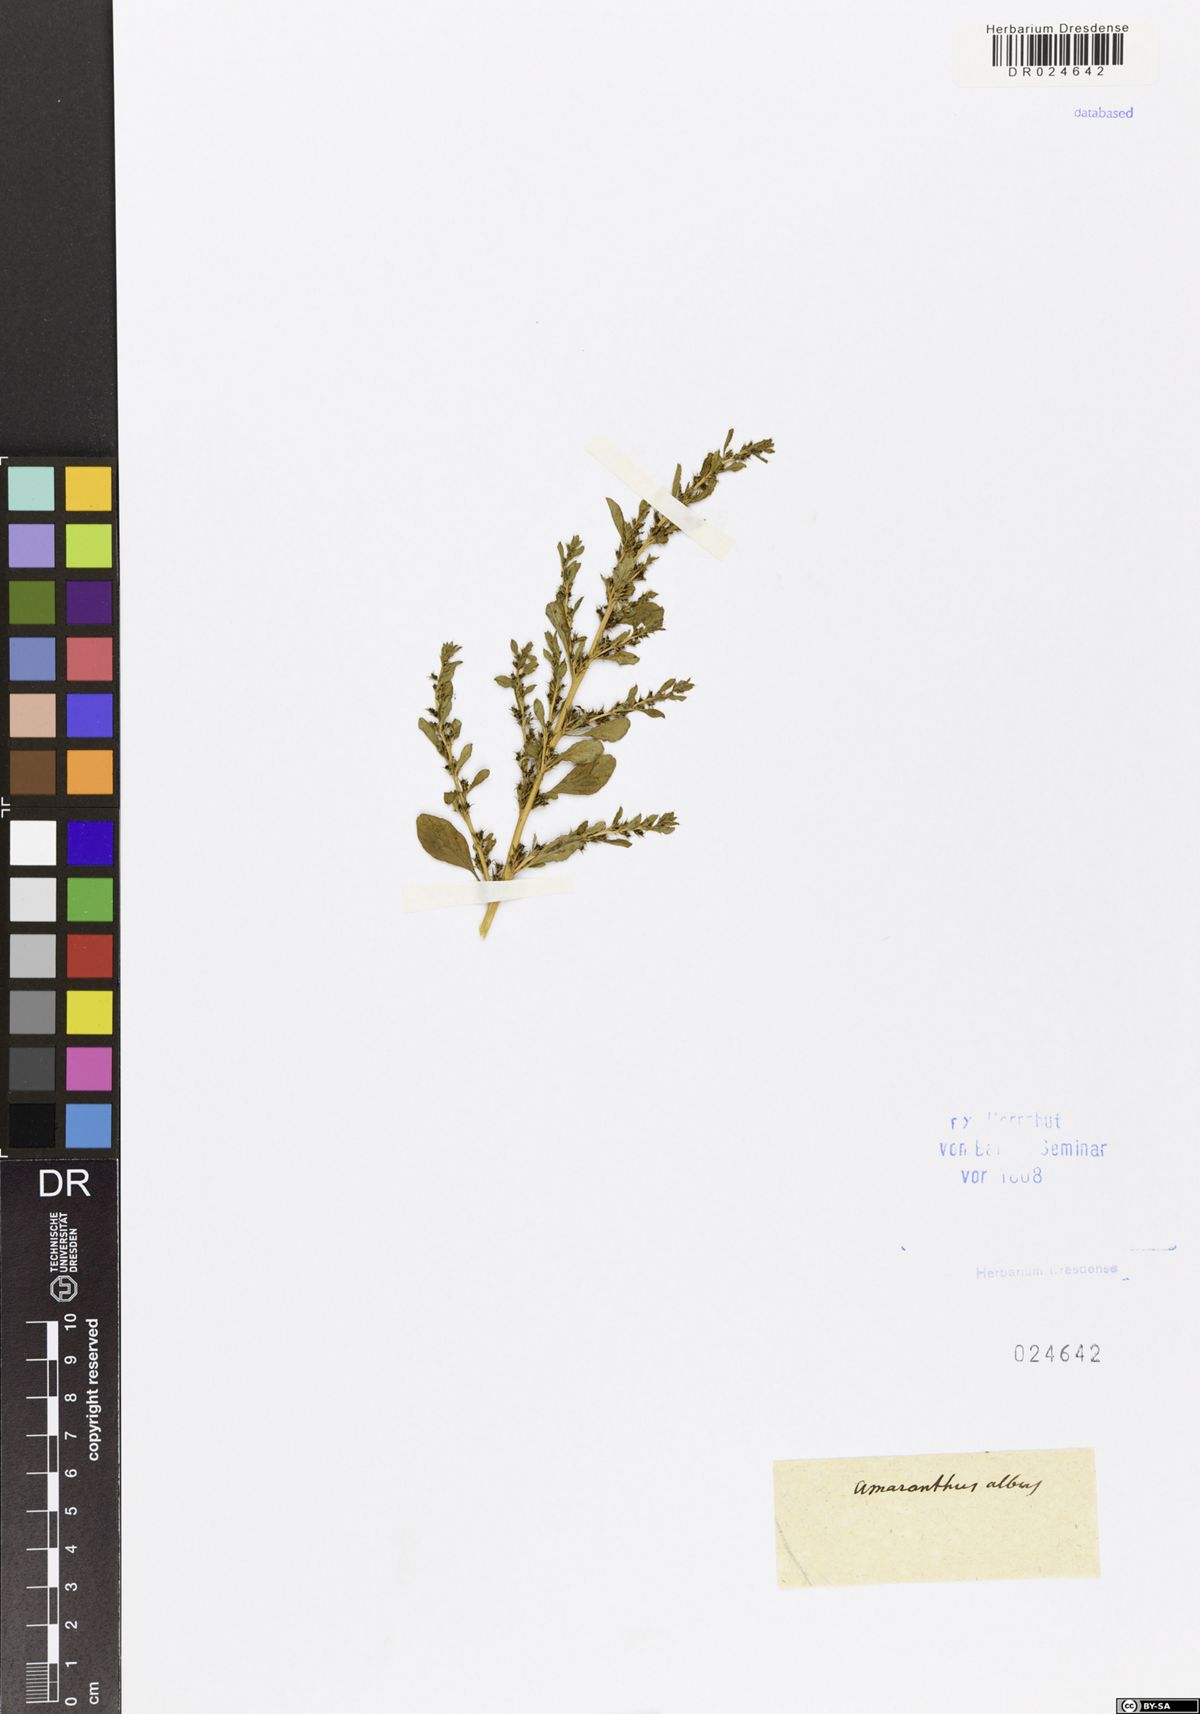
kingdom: Plantae
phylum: Tracheophyta
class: Magnoliopsida
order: Caryophyllales
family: Amaranthaceae
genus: Amaranthus
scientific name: Amaranthus albus
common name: White pigweed
